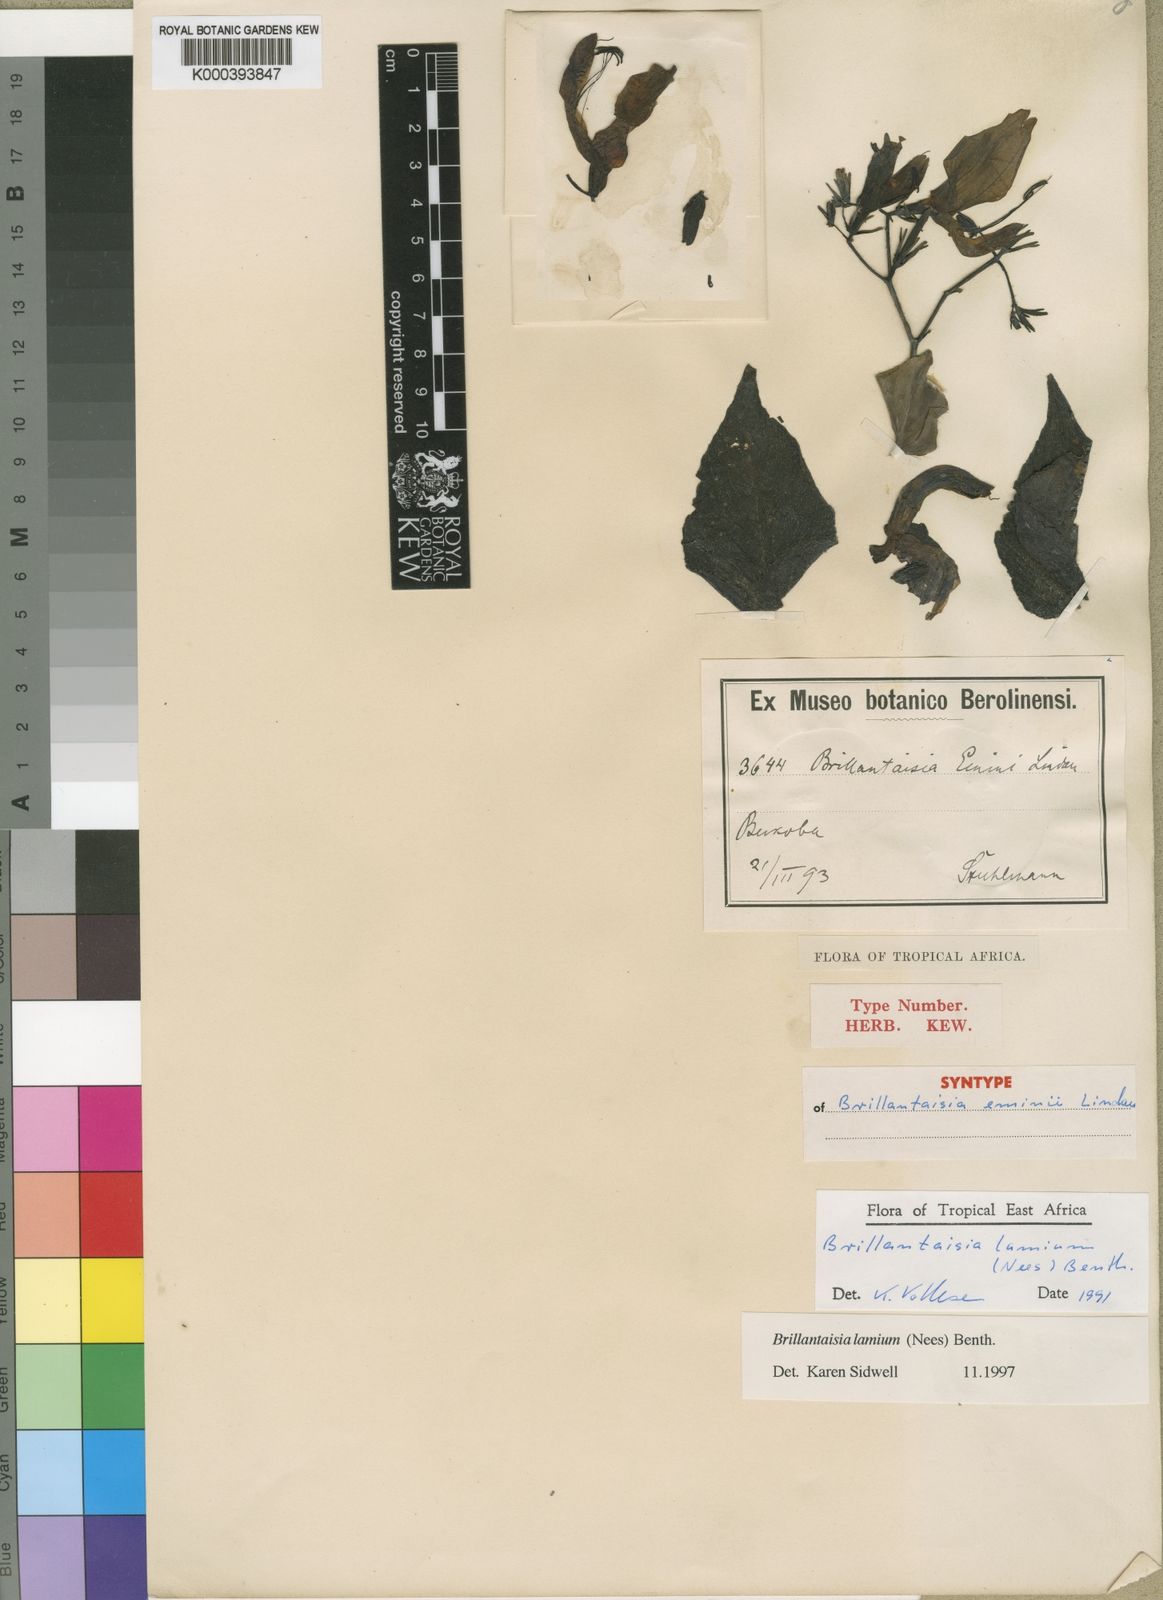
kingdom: Plantae
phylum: Tracheophyta
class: Magnoliopsida
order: Lamiales
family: Acanthaceae
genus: Brillantaisia
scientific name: Brillantaisia lamium
